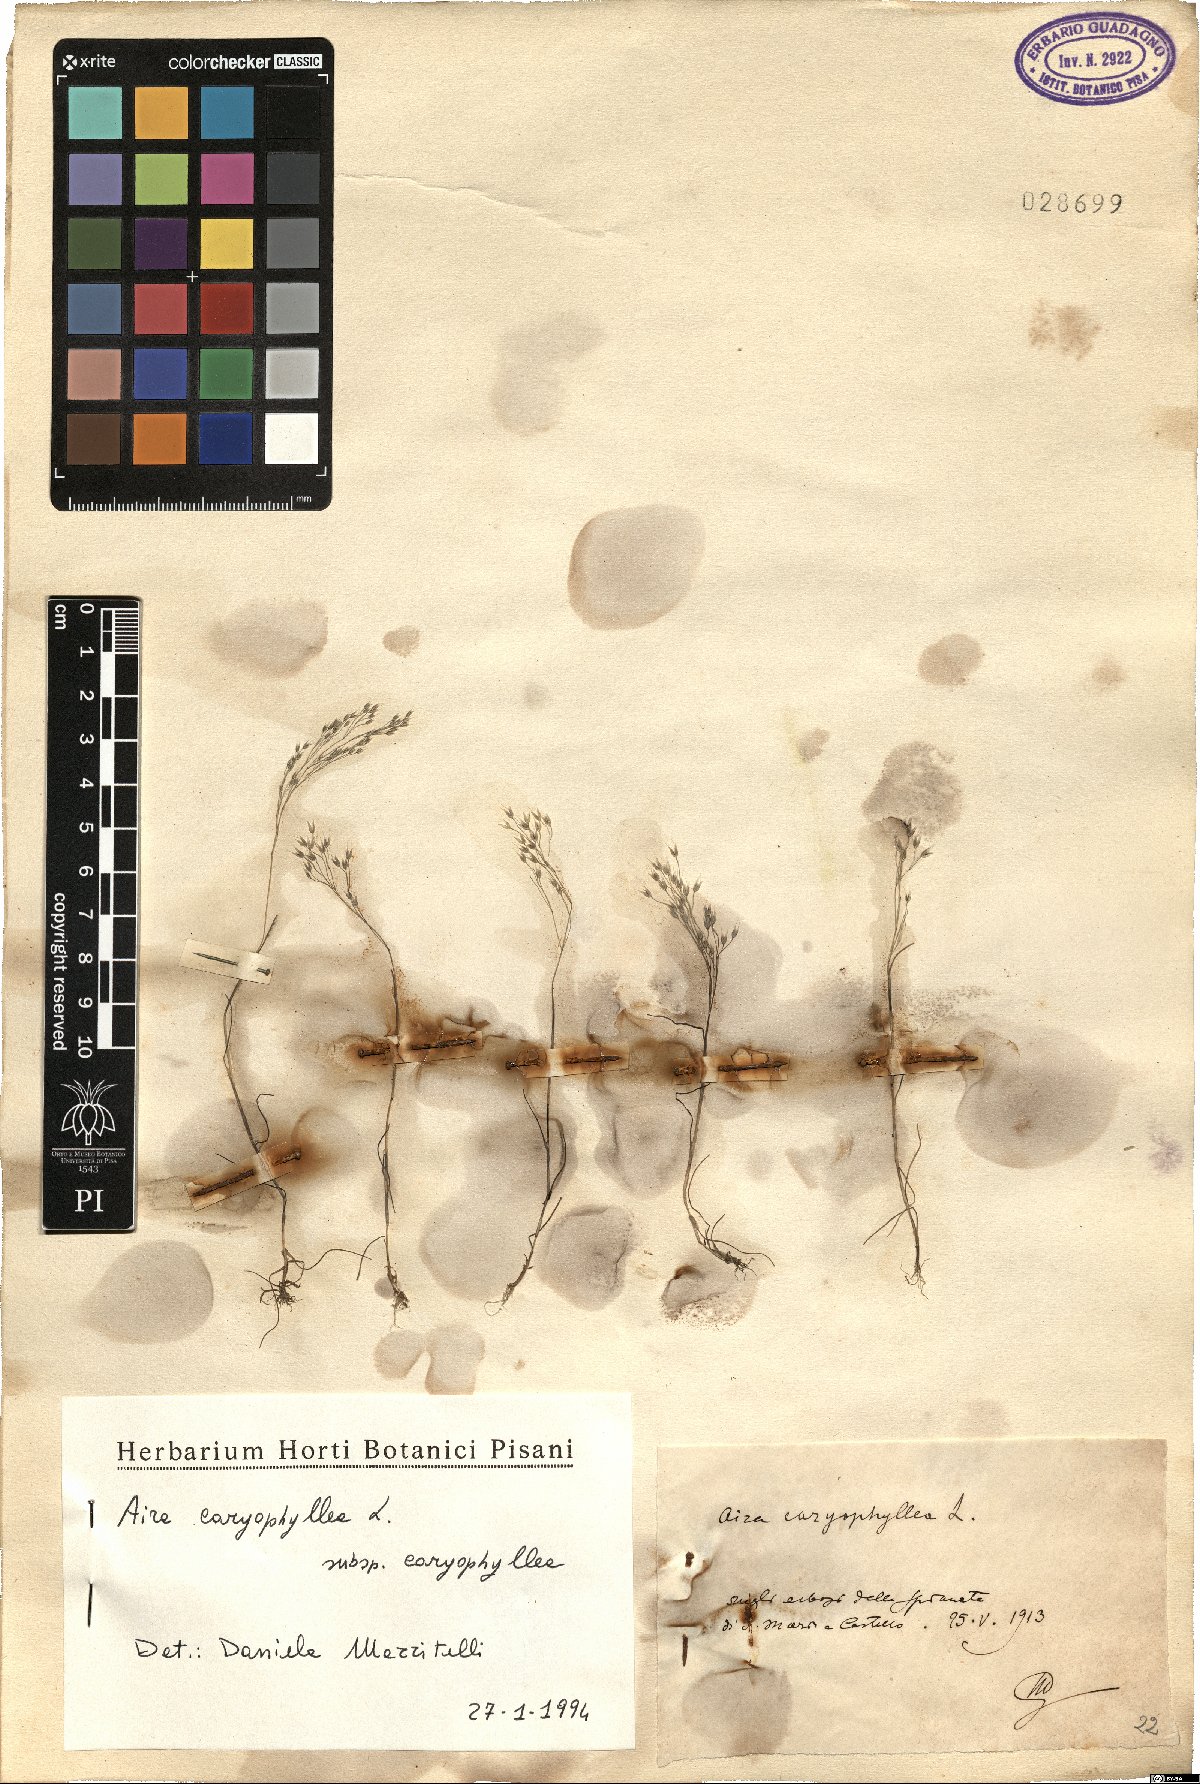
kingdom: Plantae
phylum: Tracheophyta
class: Liliopsida
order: Poales
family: Poaceae
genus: Aira
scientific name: Aira caryophyllea
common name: Silver hairgrass
